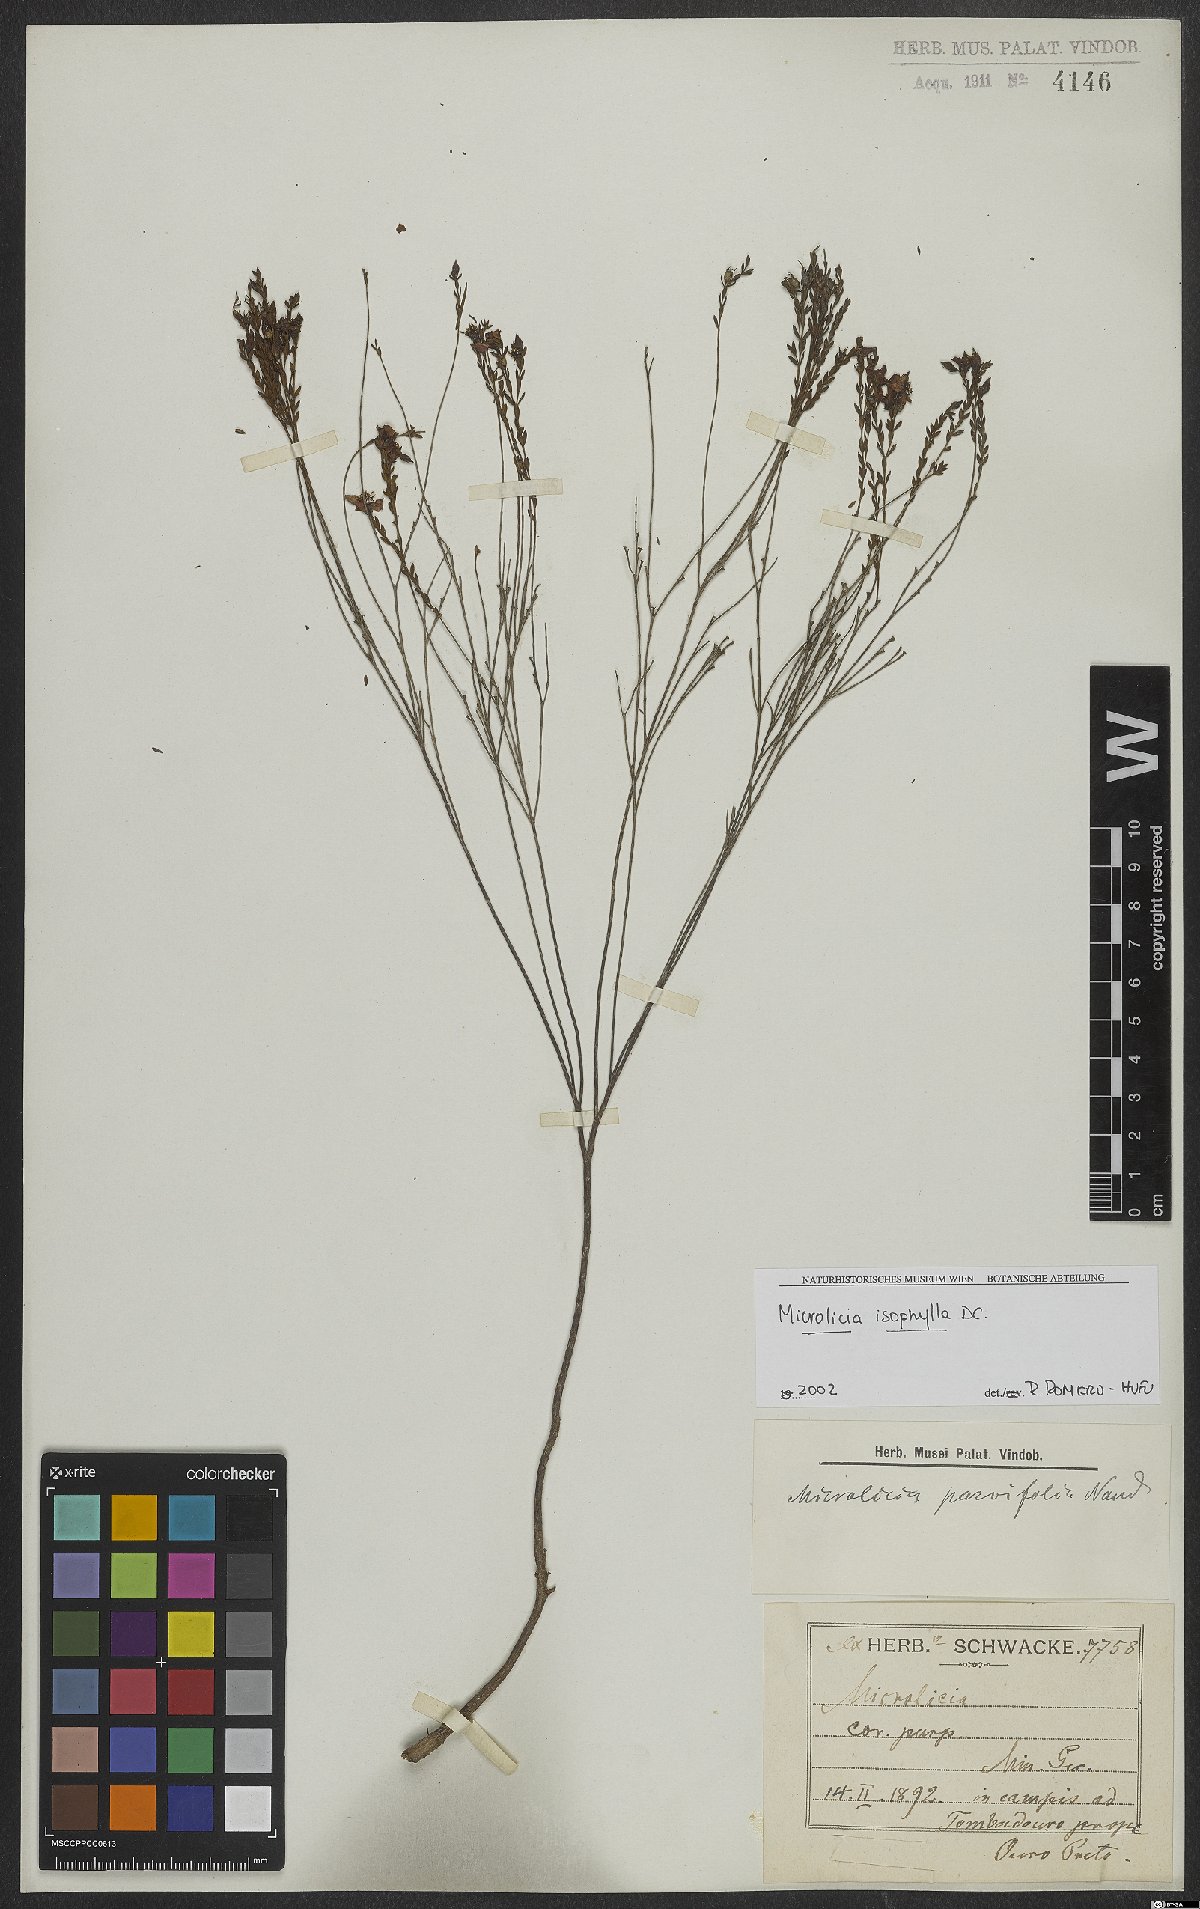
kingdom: Plantae
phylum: Tracheophyta
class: Magnoliopsida
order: Myrtales
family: Melastomataceae
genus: Microlicia
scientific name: Microlicia isophylla
